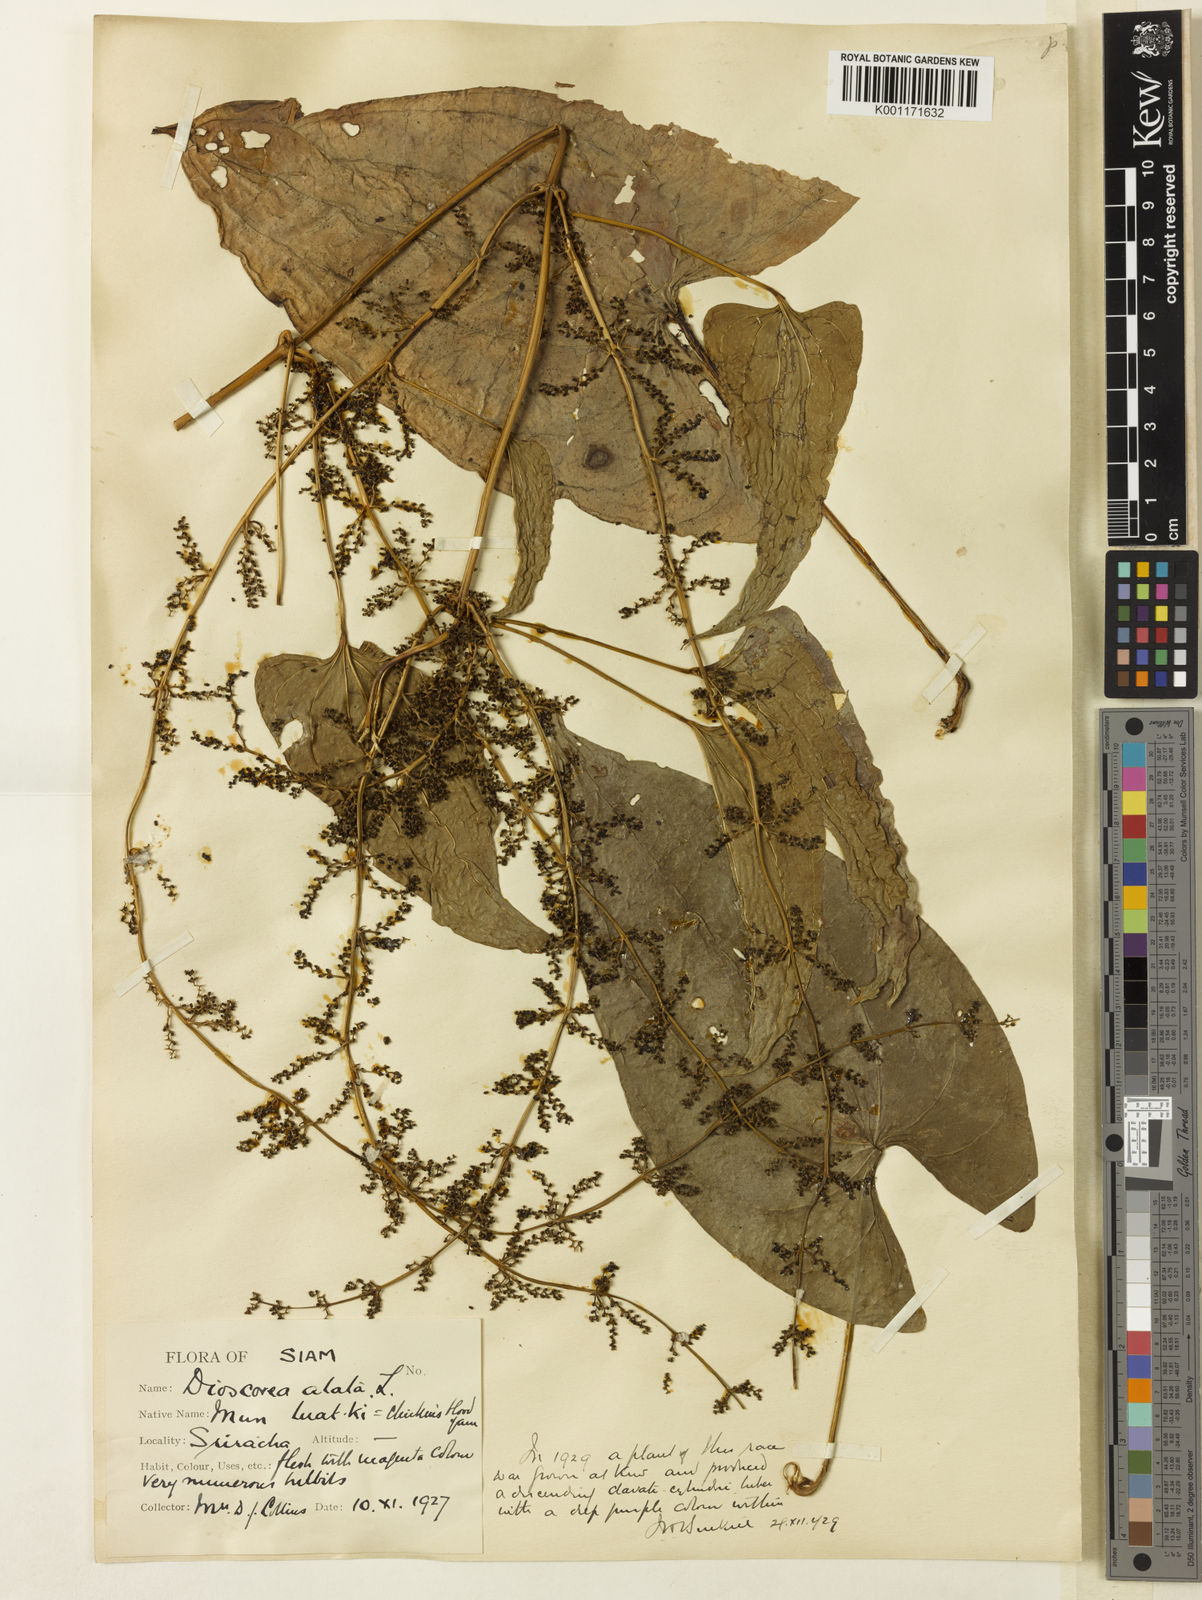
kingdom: Plantae
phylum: Tracheophyta
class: Liliopsida
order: Dioscoreales
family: Dioscoreaceae
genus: Dioscorea
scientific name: Dioscorea alata
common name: Water yam
